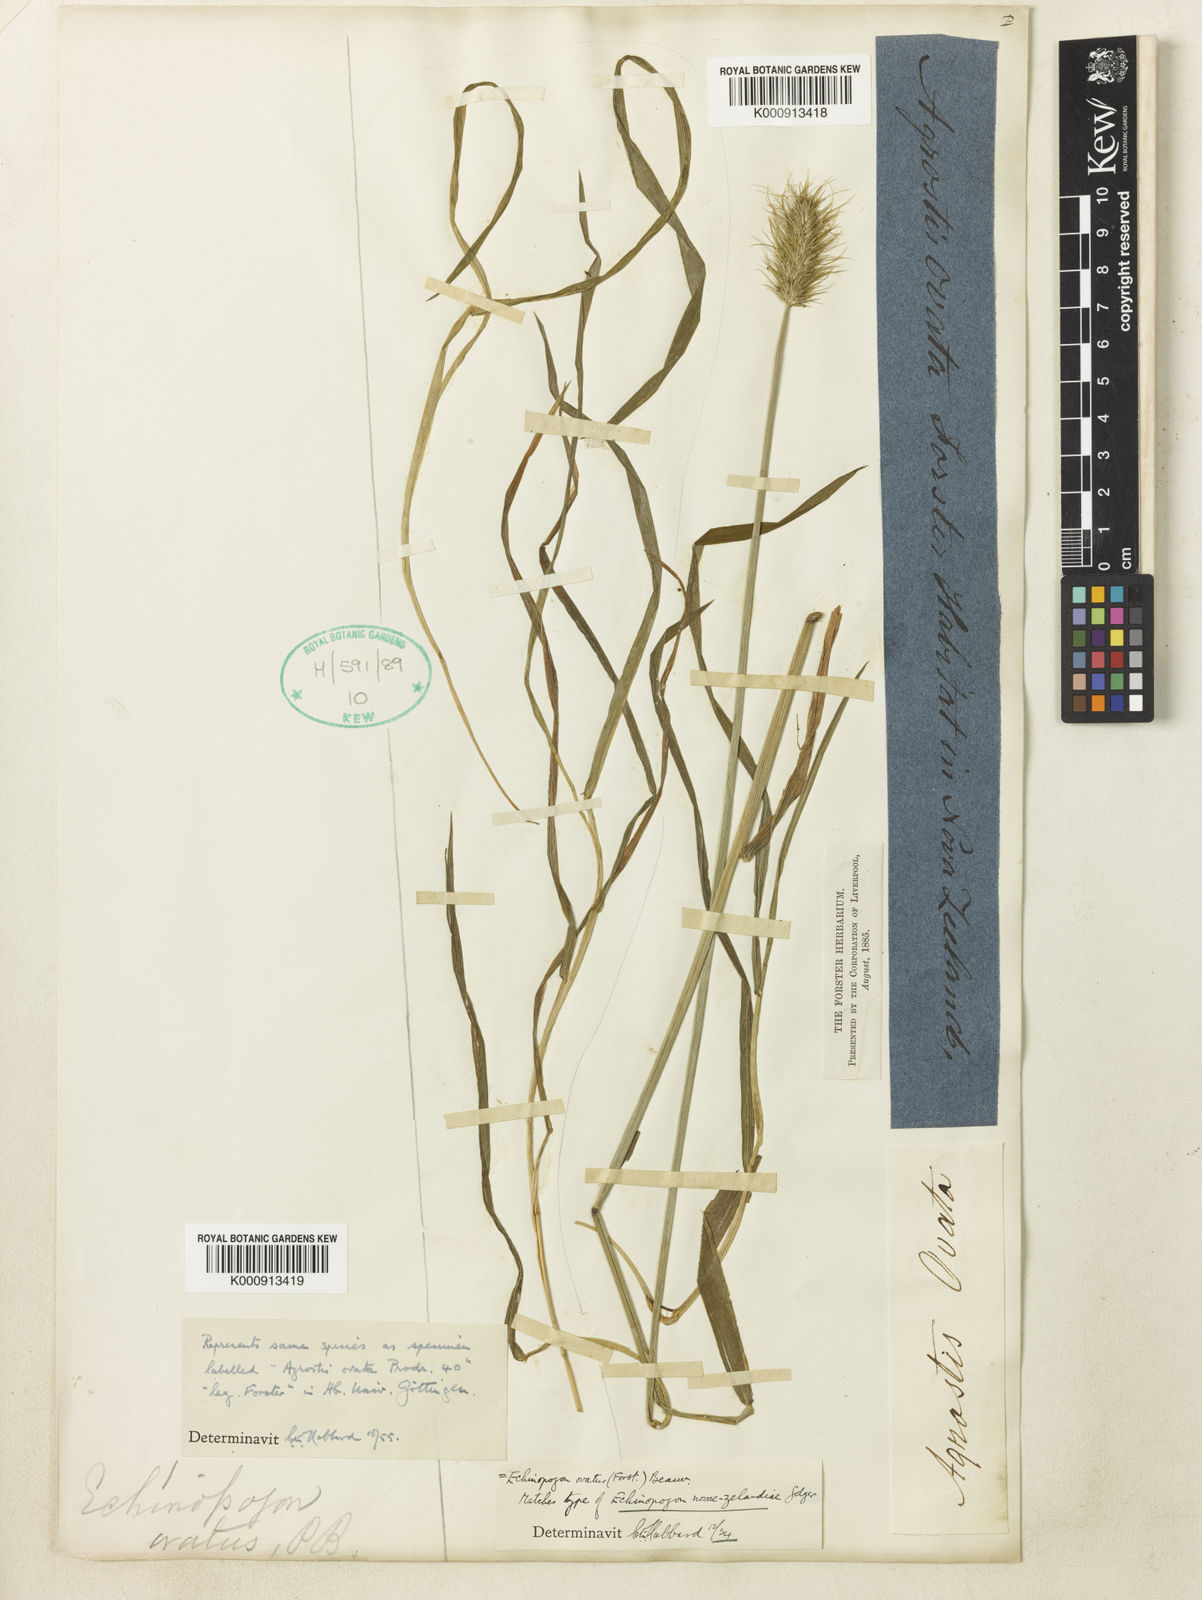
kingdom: Plantae
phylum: Tracheophyta
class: Liliopsida
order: Poales
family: Poaceae
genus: Echinopogon
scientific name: Echinopogon ovatus
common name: Hedgehog-grass
